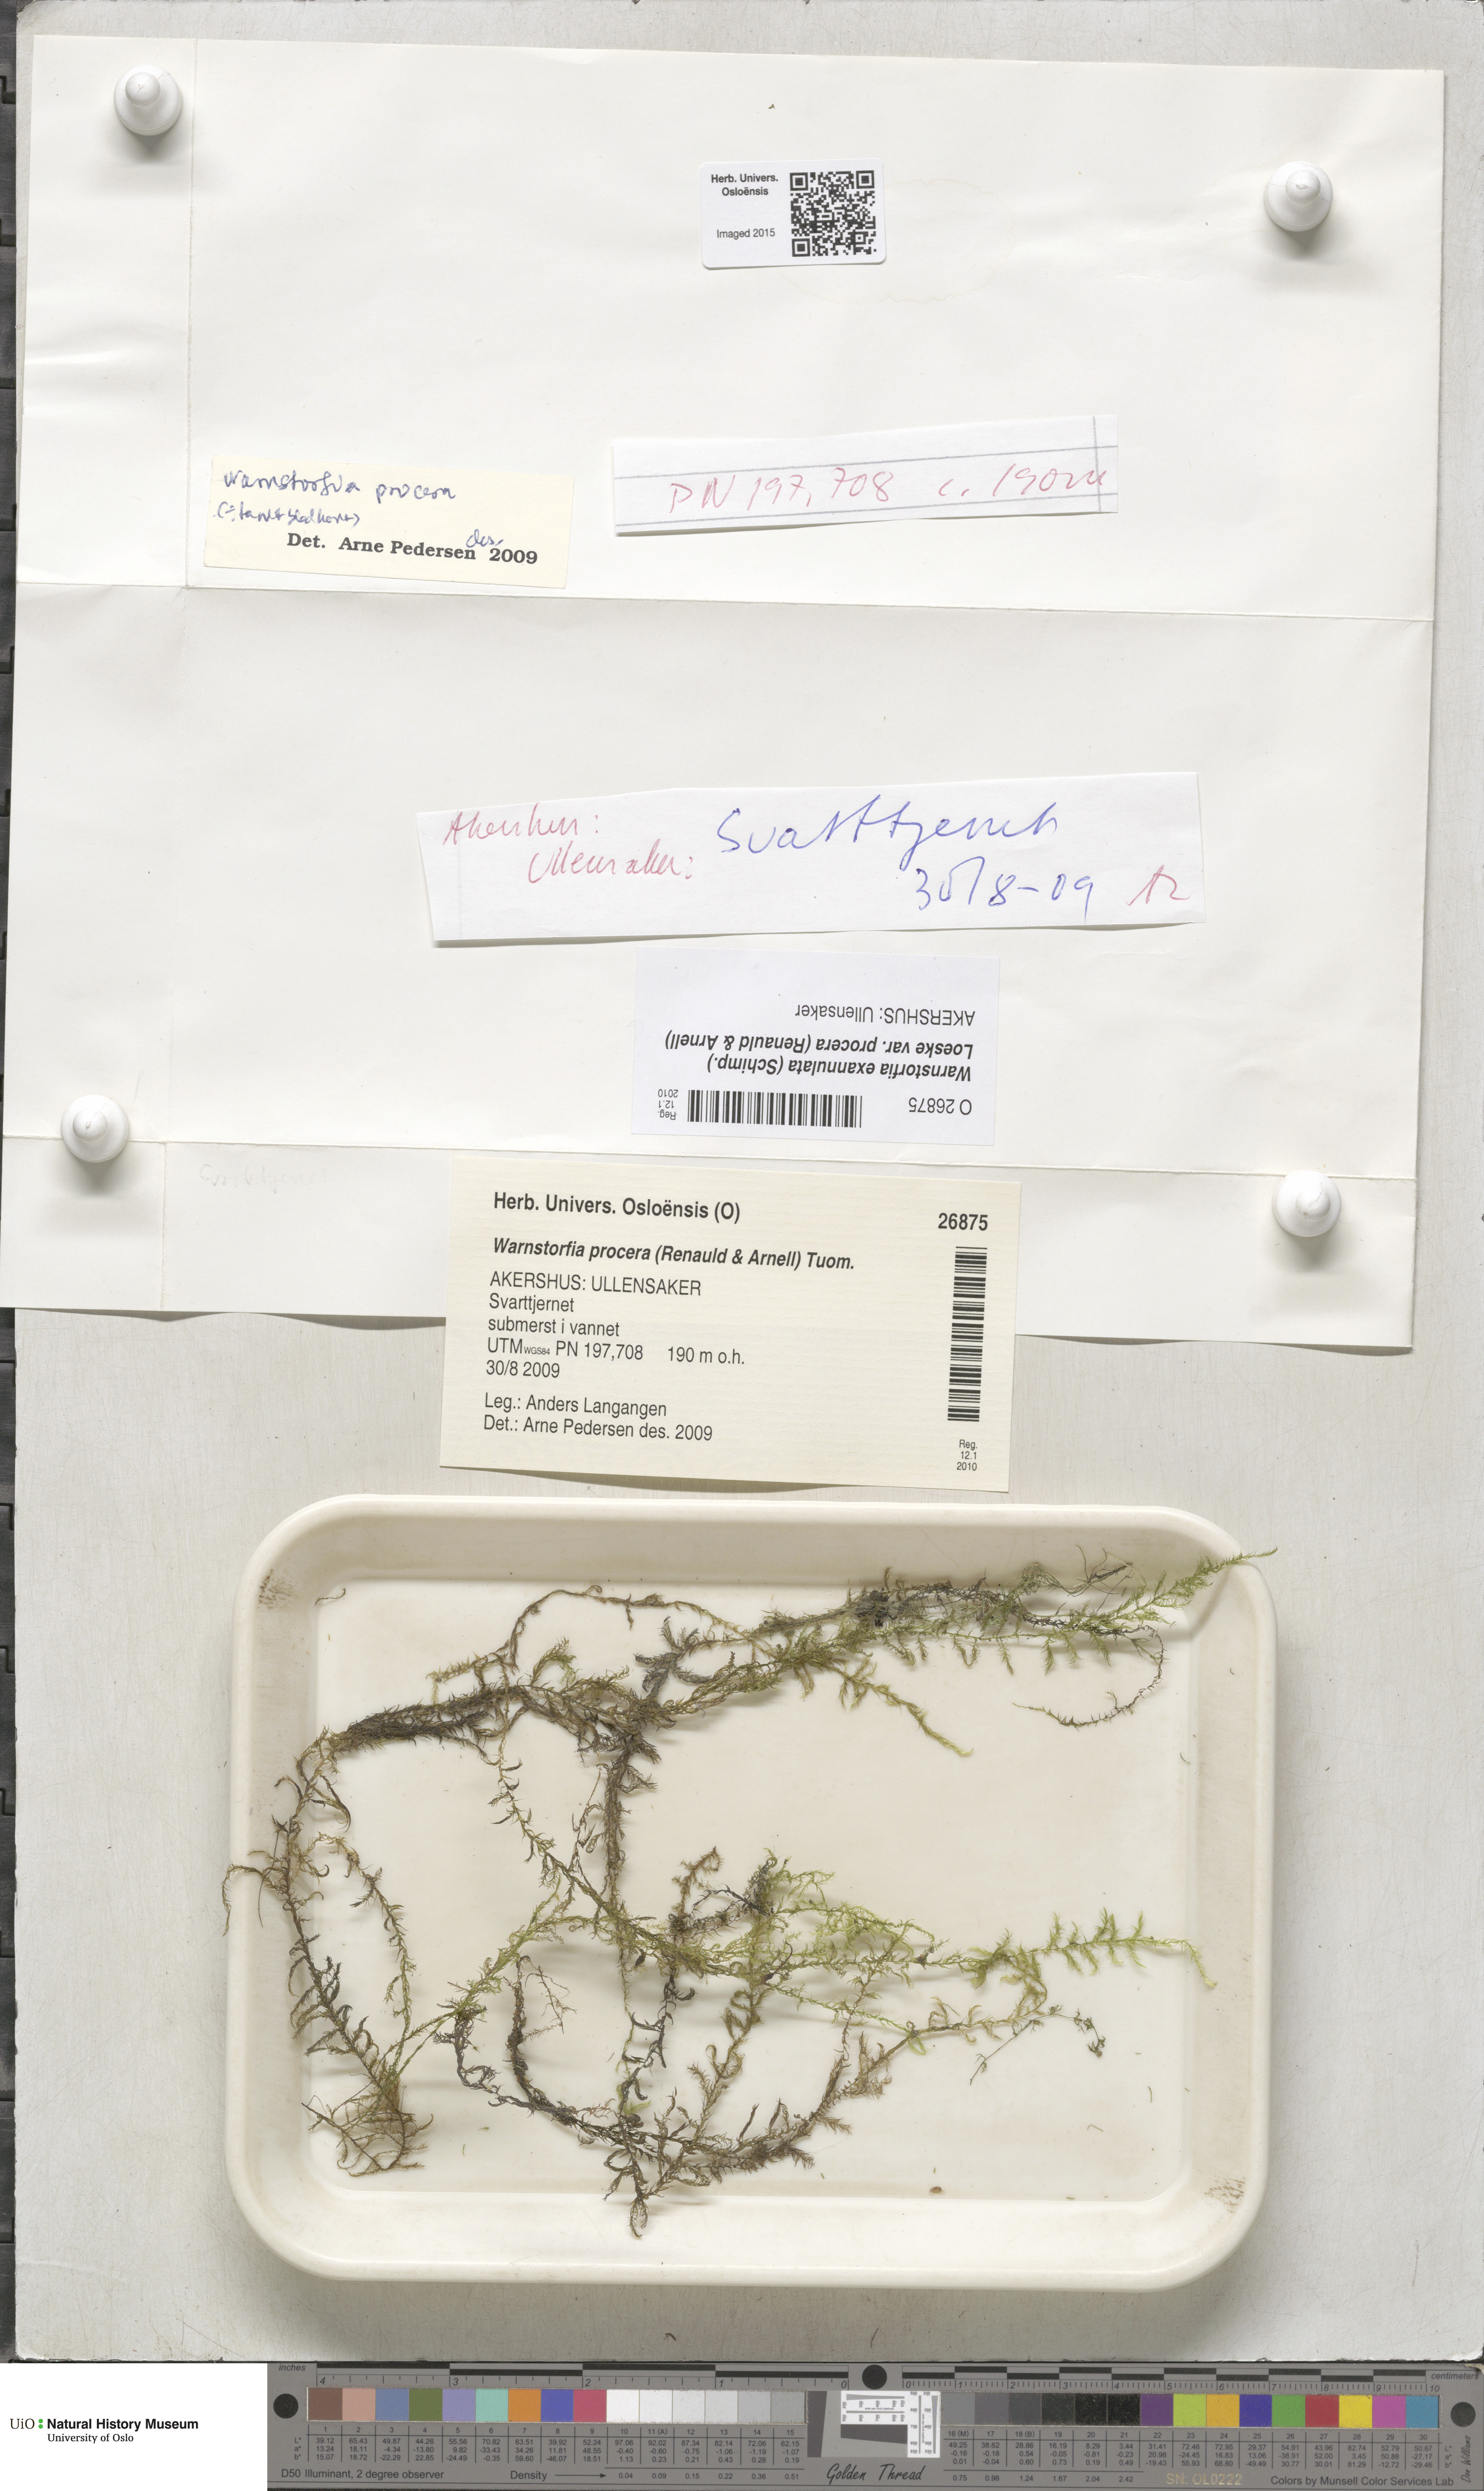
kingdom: Plantae
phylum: Bryophyta
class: Bryopsida
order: Hypnales
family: Calliergonaceae
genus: Sarmentypnum
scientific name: Sarmentypnum procerum
